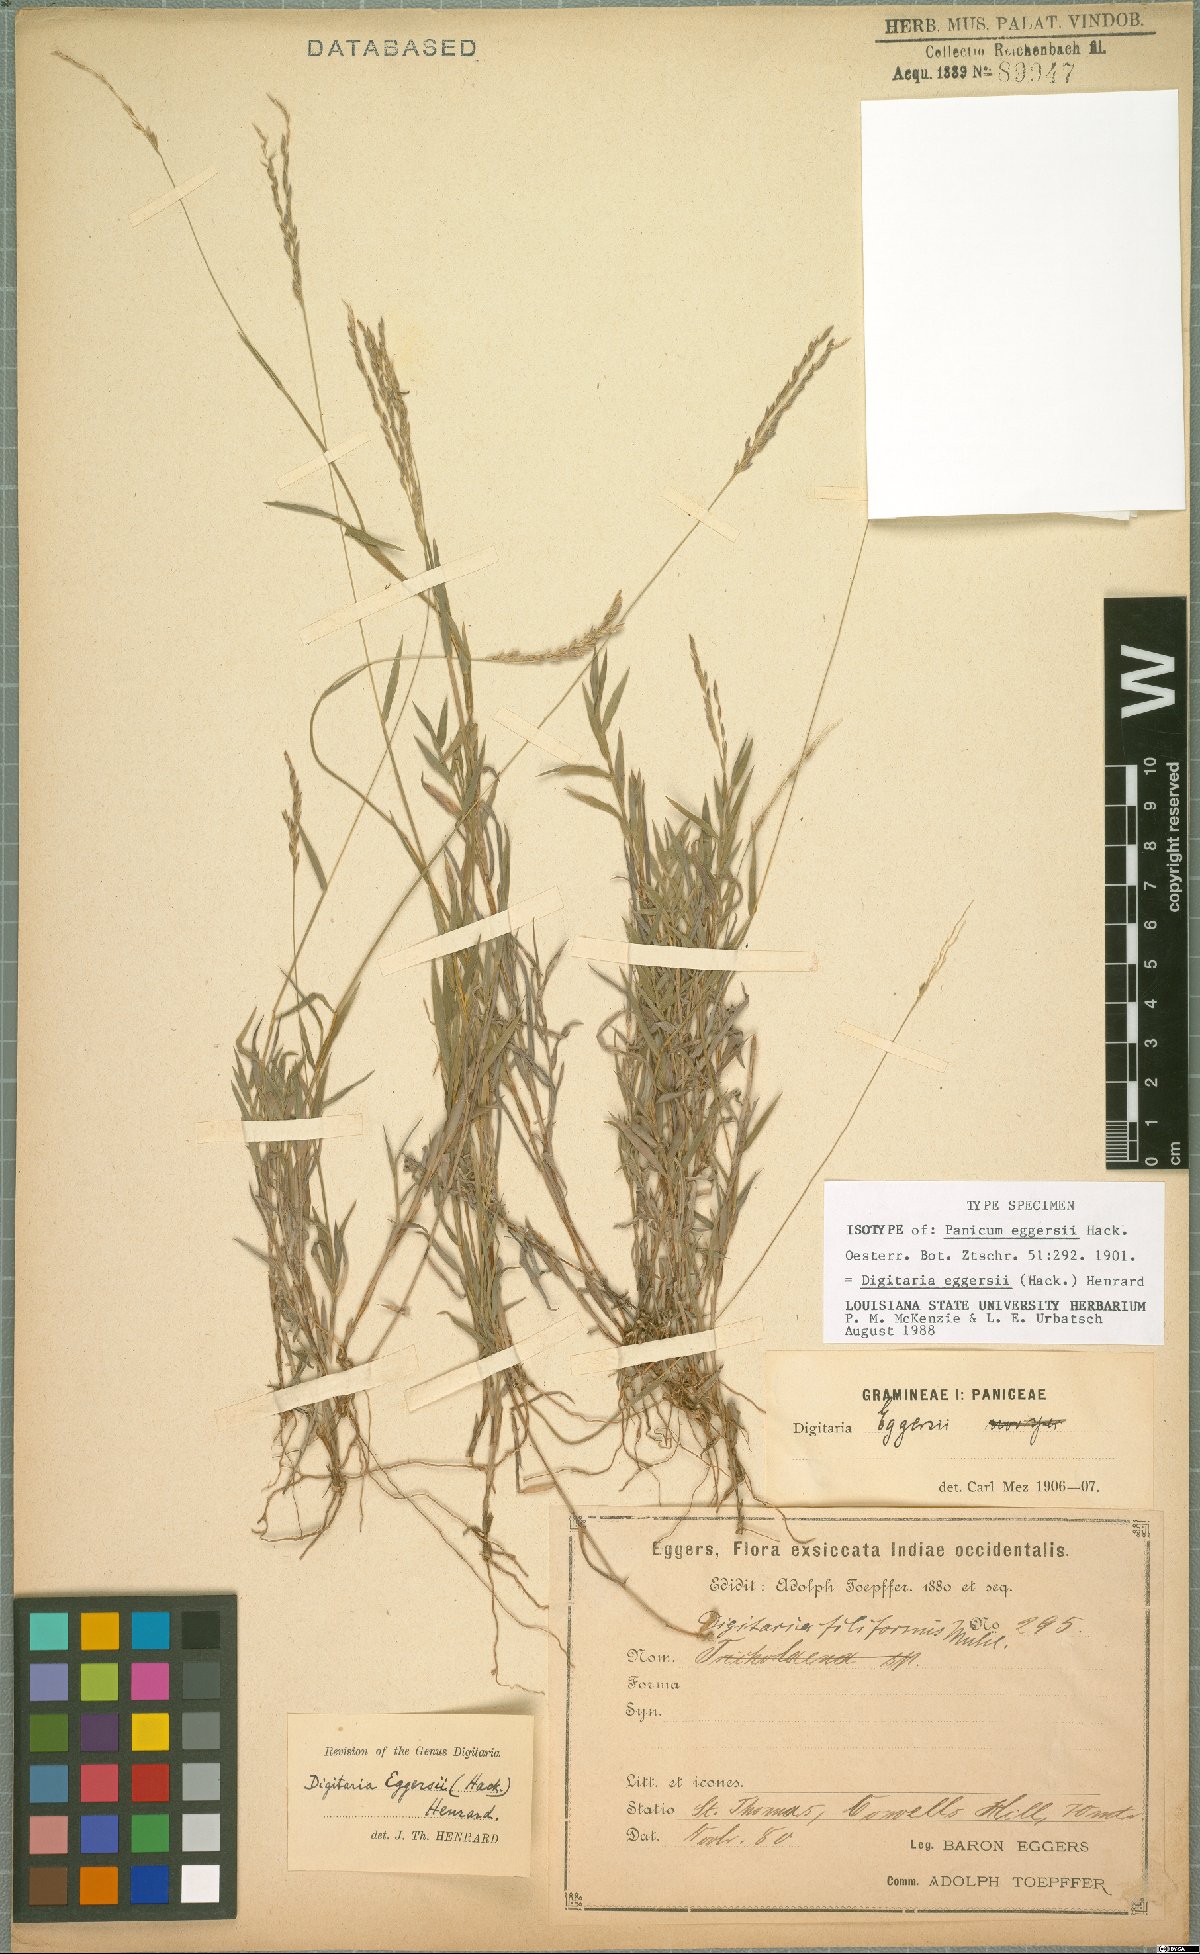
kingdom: Plantae
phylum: Tracheophyta
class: Liliopsida
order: Poales
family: Poaceae
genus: Digitaria
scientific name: Digitaria eggersii
